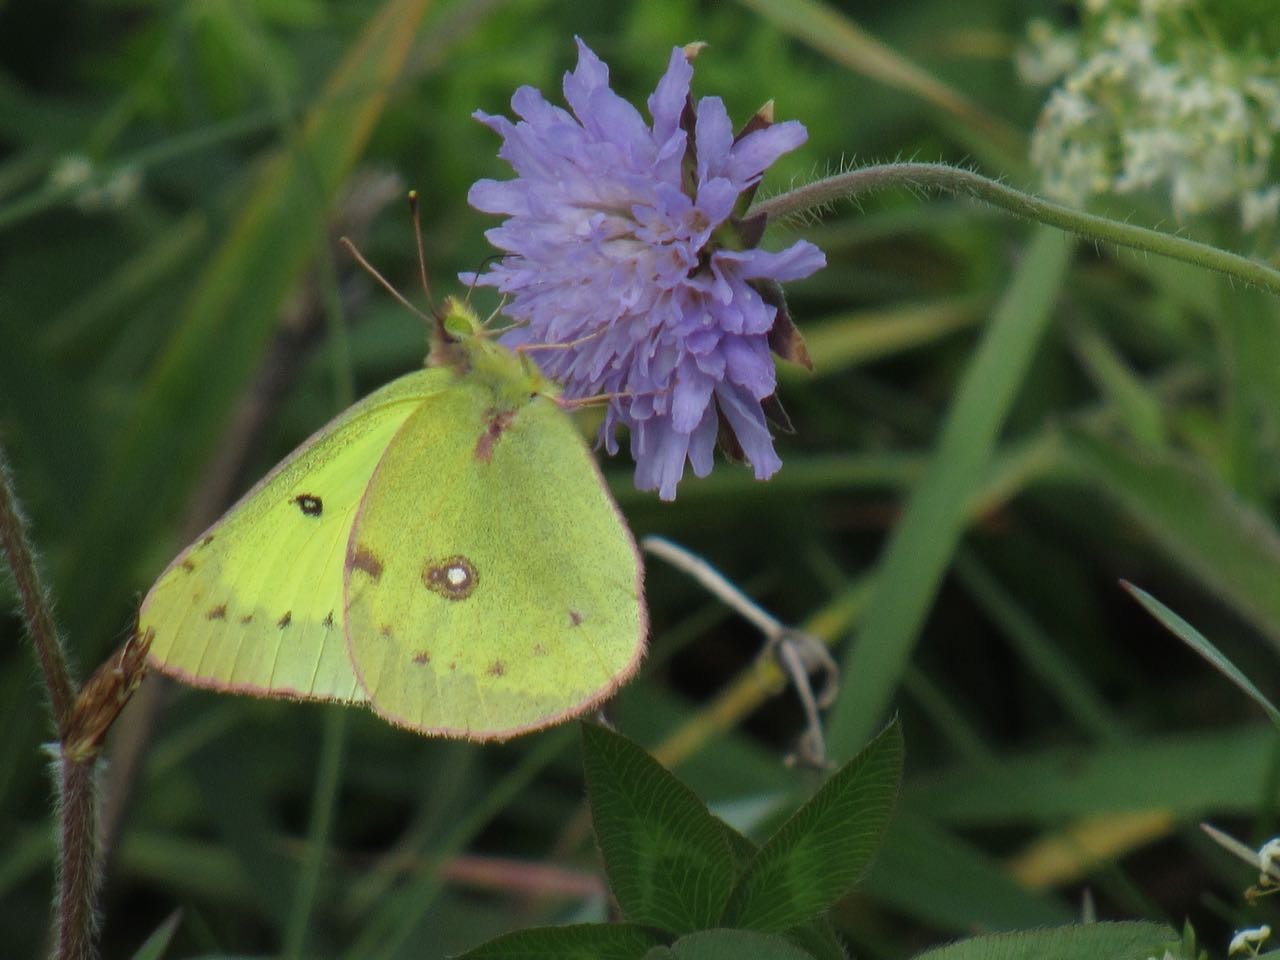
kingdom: Animalia
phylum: Arthropoda
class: Insecta
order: Lepidoptera
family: Pieridae
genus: Colias
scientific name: Colias philodice
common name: Clouded Sulphur
